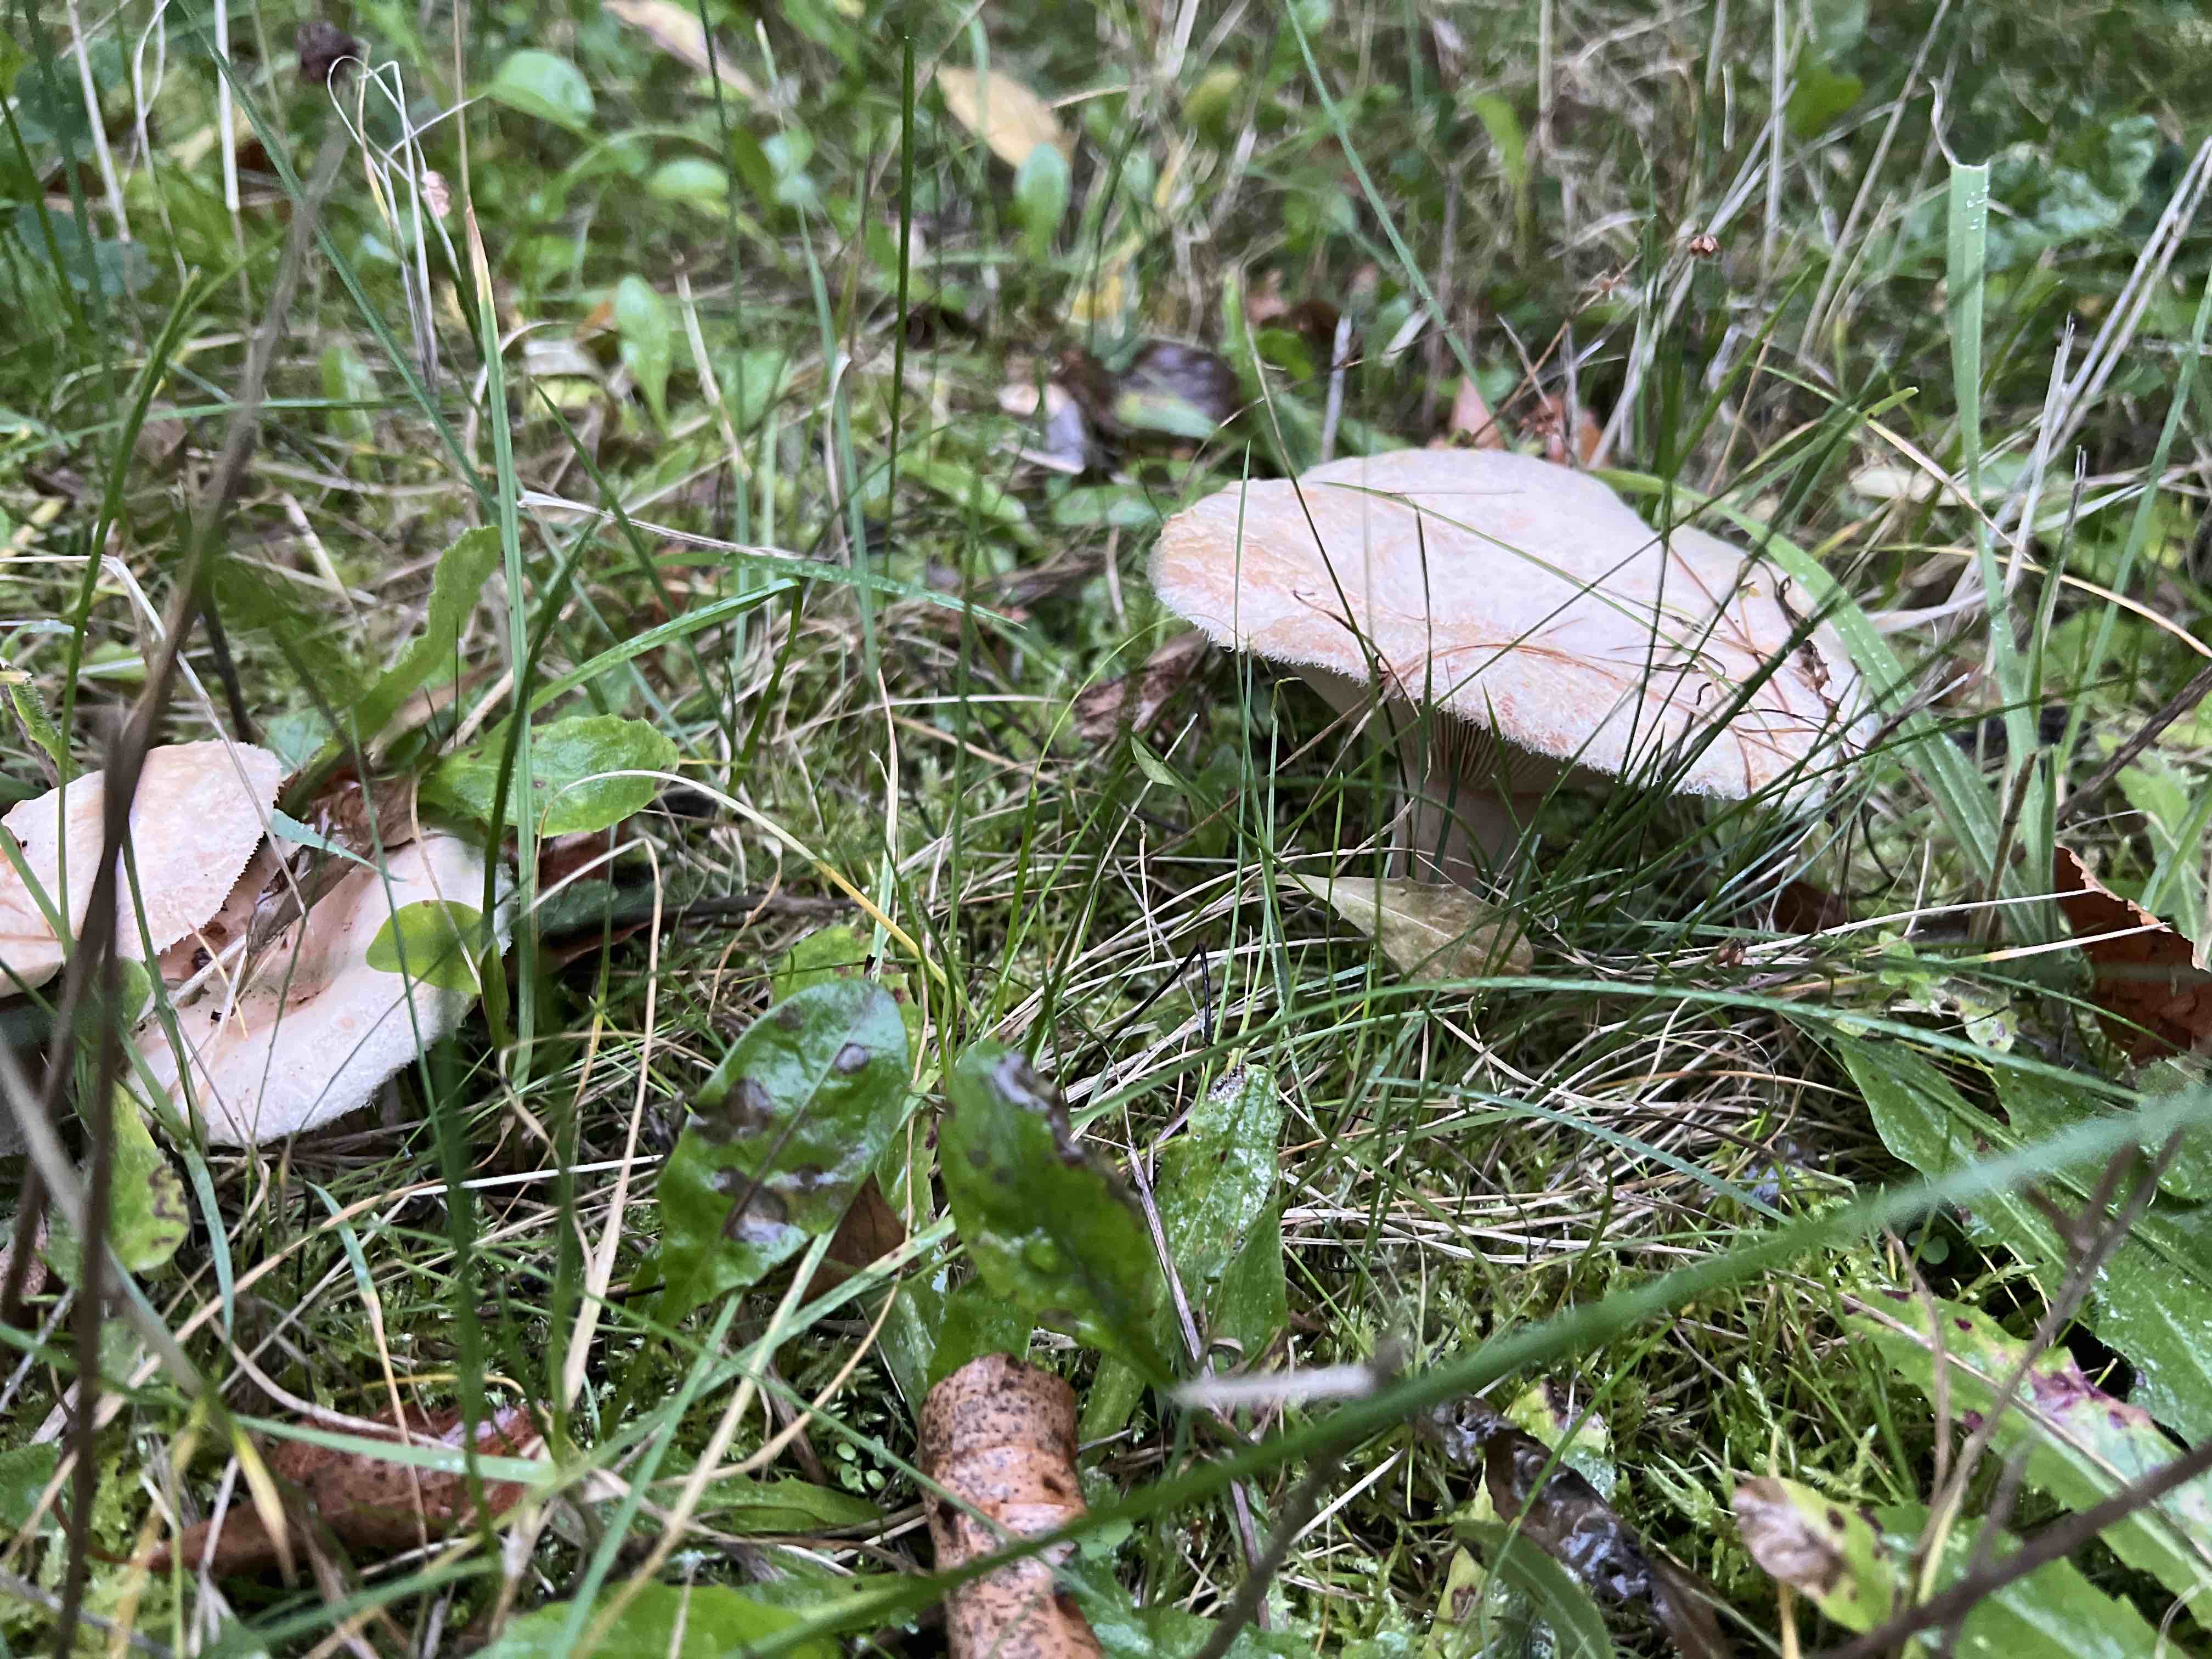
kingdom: Fungi
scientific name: Fungi
